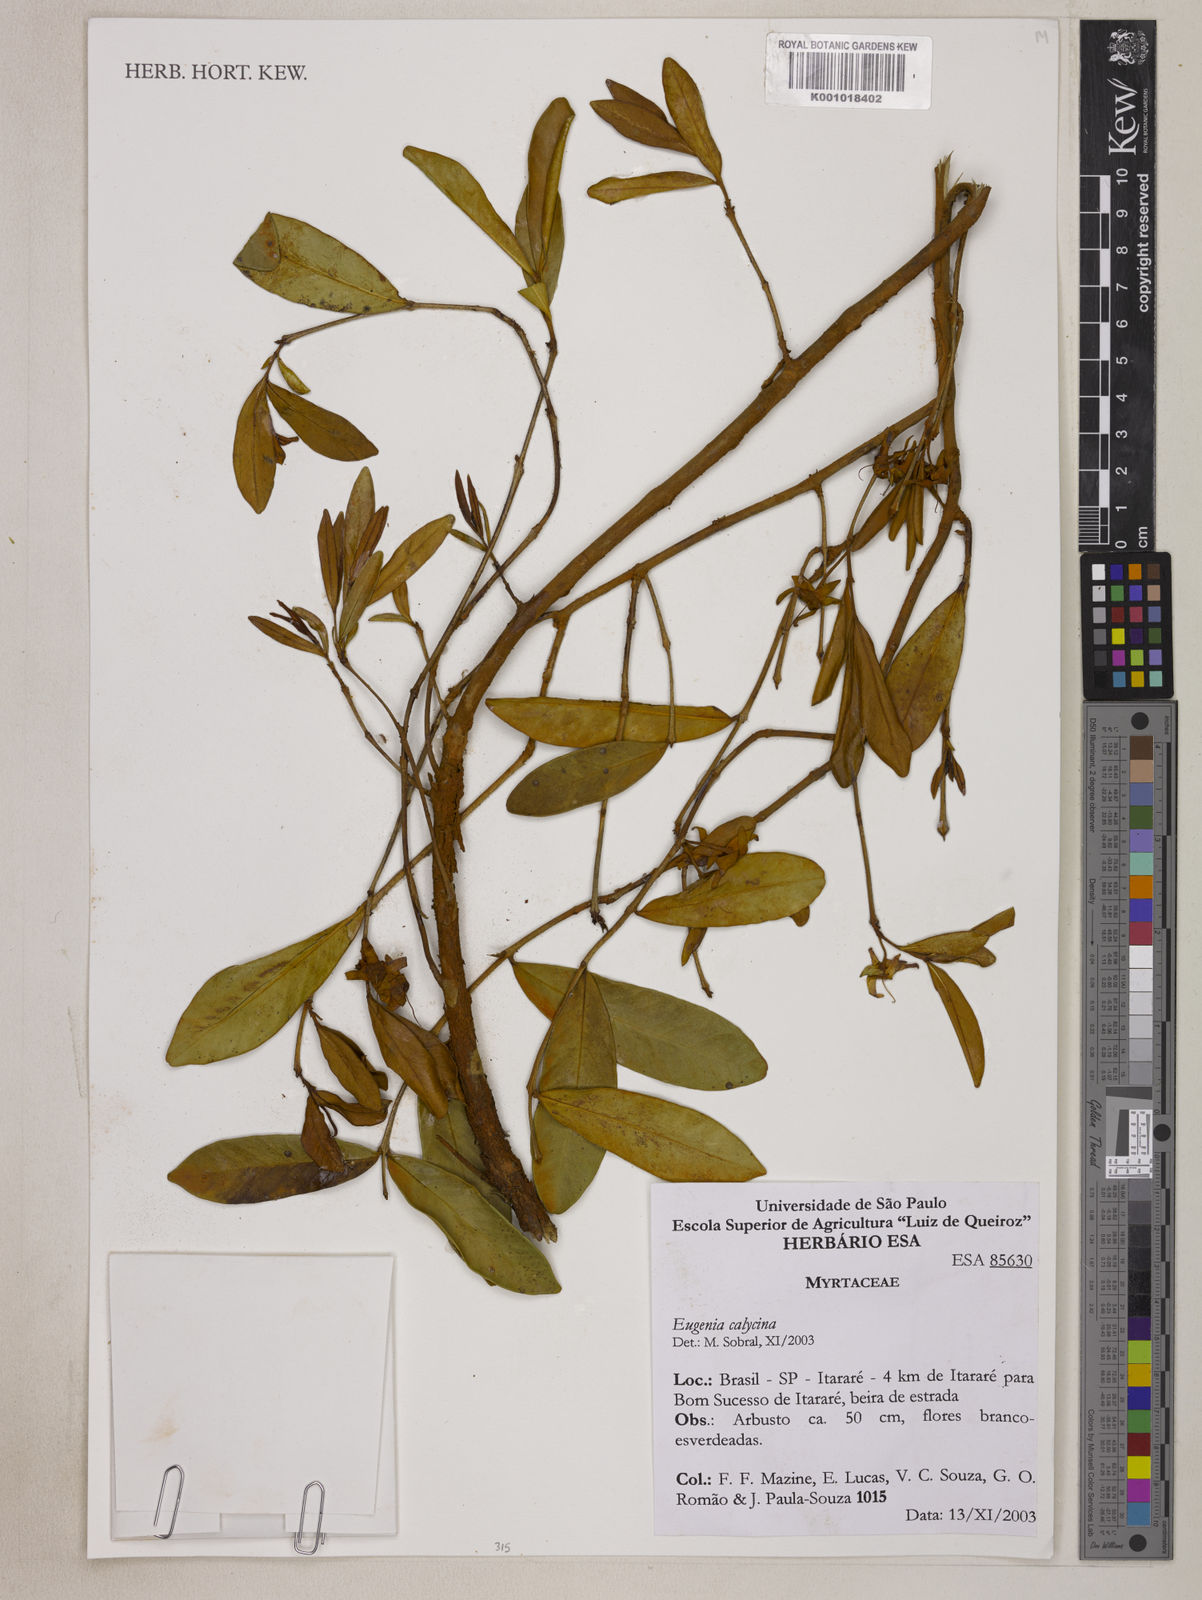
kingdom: Plantae
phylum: Tracheophyta
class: Magnoliopsida
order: Myrtales
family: Myrtaceae
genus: Eugenia
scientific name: Eugenia calycina
